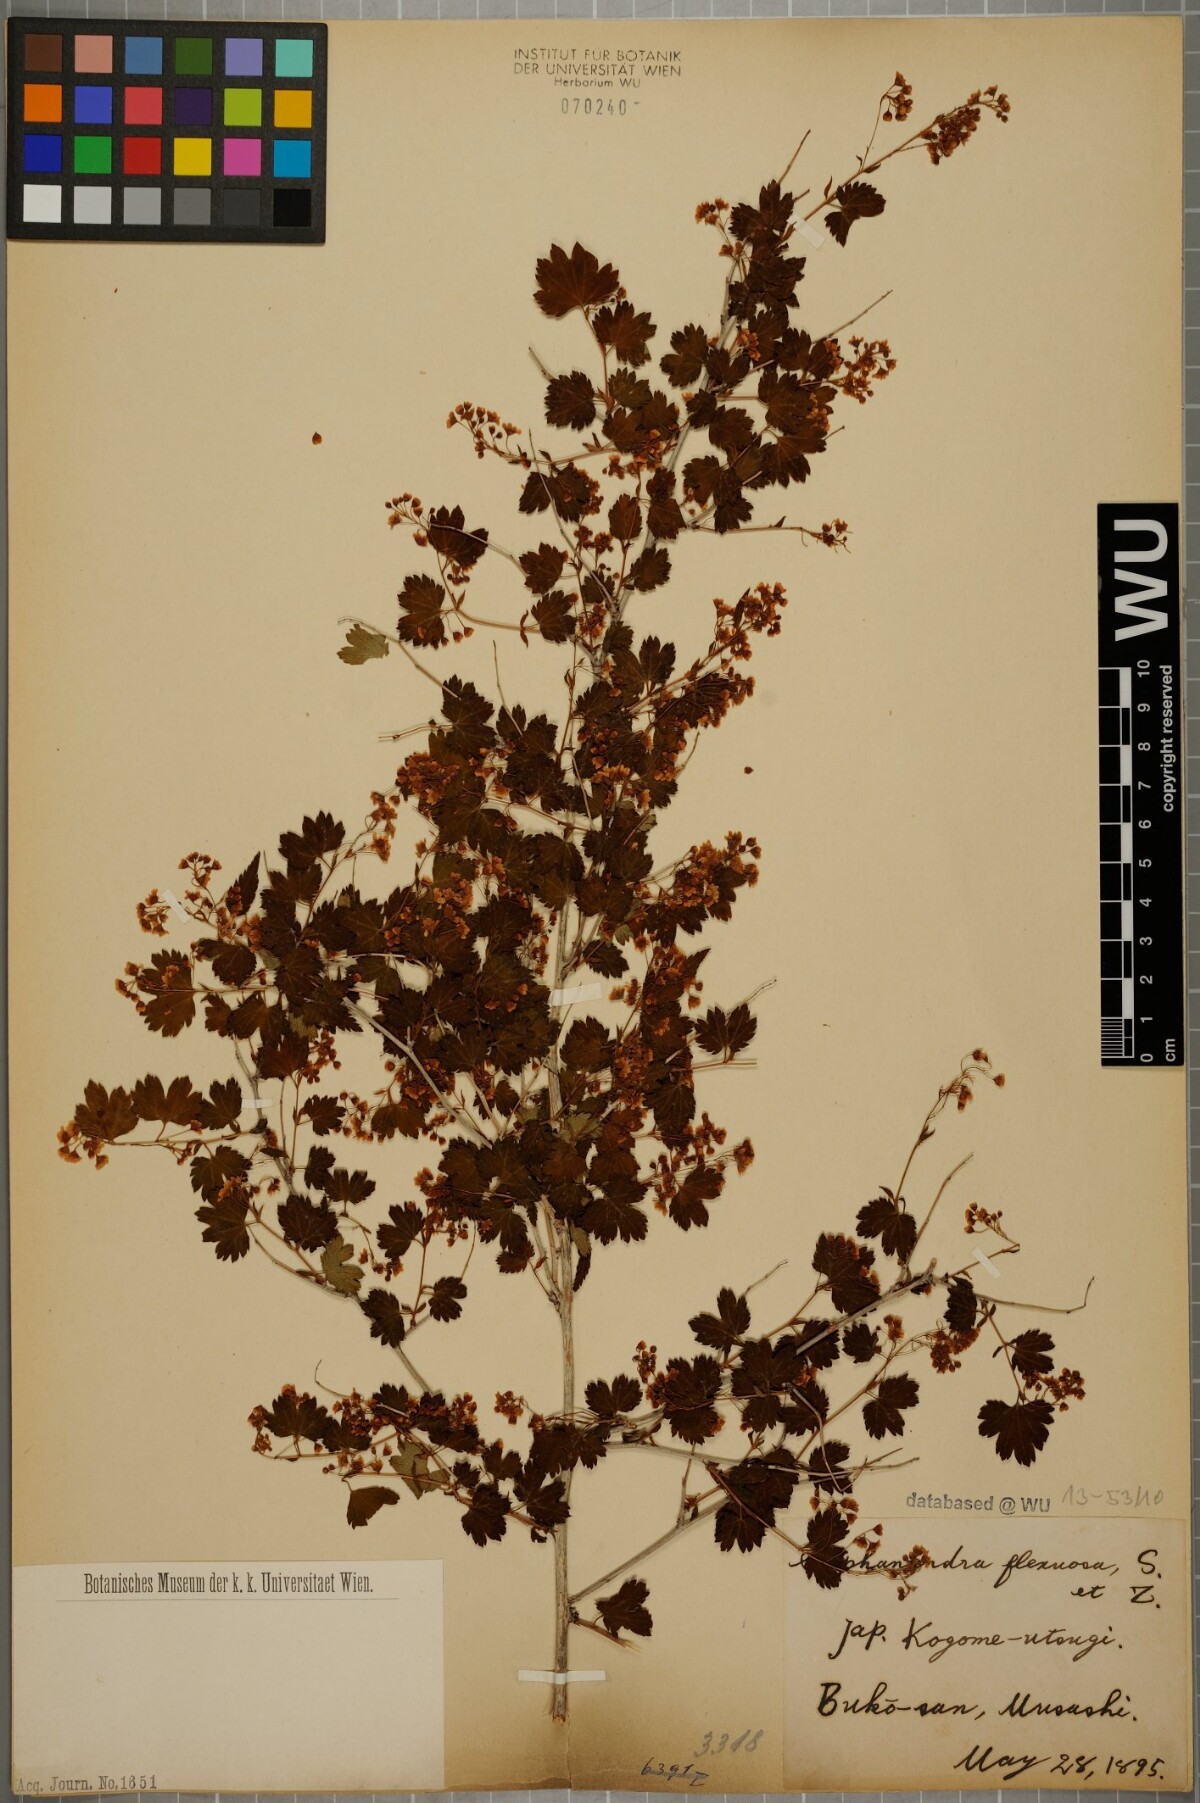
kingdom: Plantae
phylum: Tracheophyta
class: Magnoliopsida
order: Rosales
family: Rosaceae
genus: Neillia
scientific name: Neillia incisa
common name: Laceshrub
